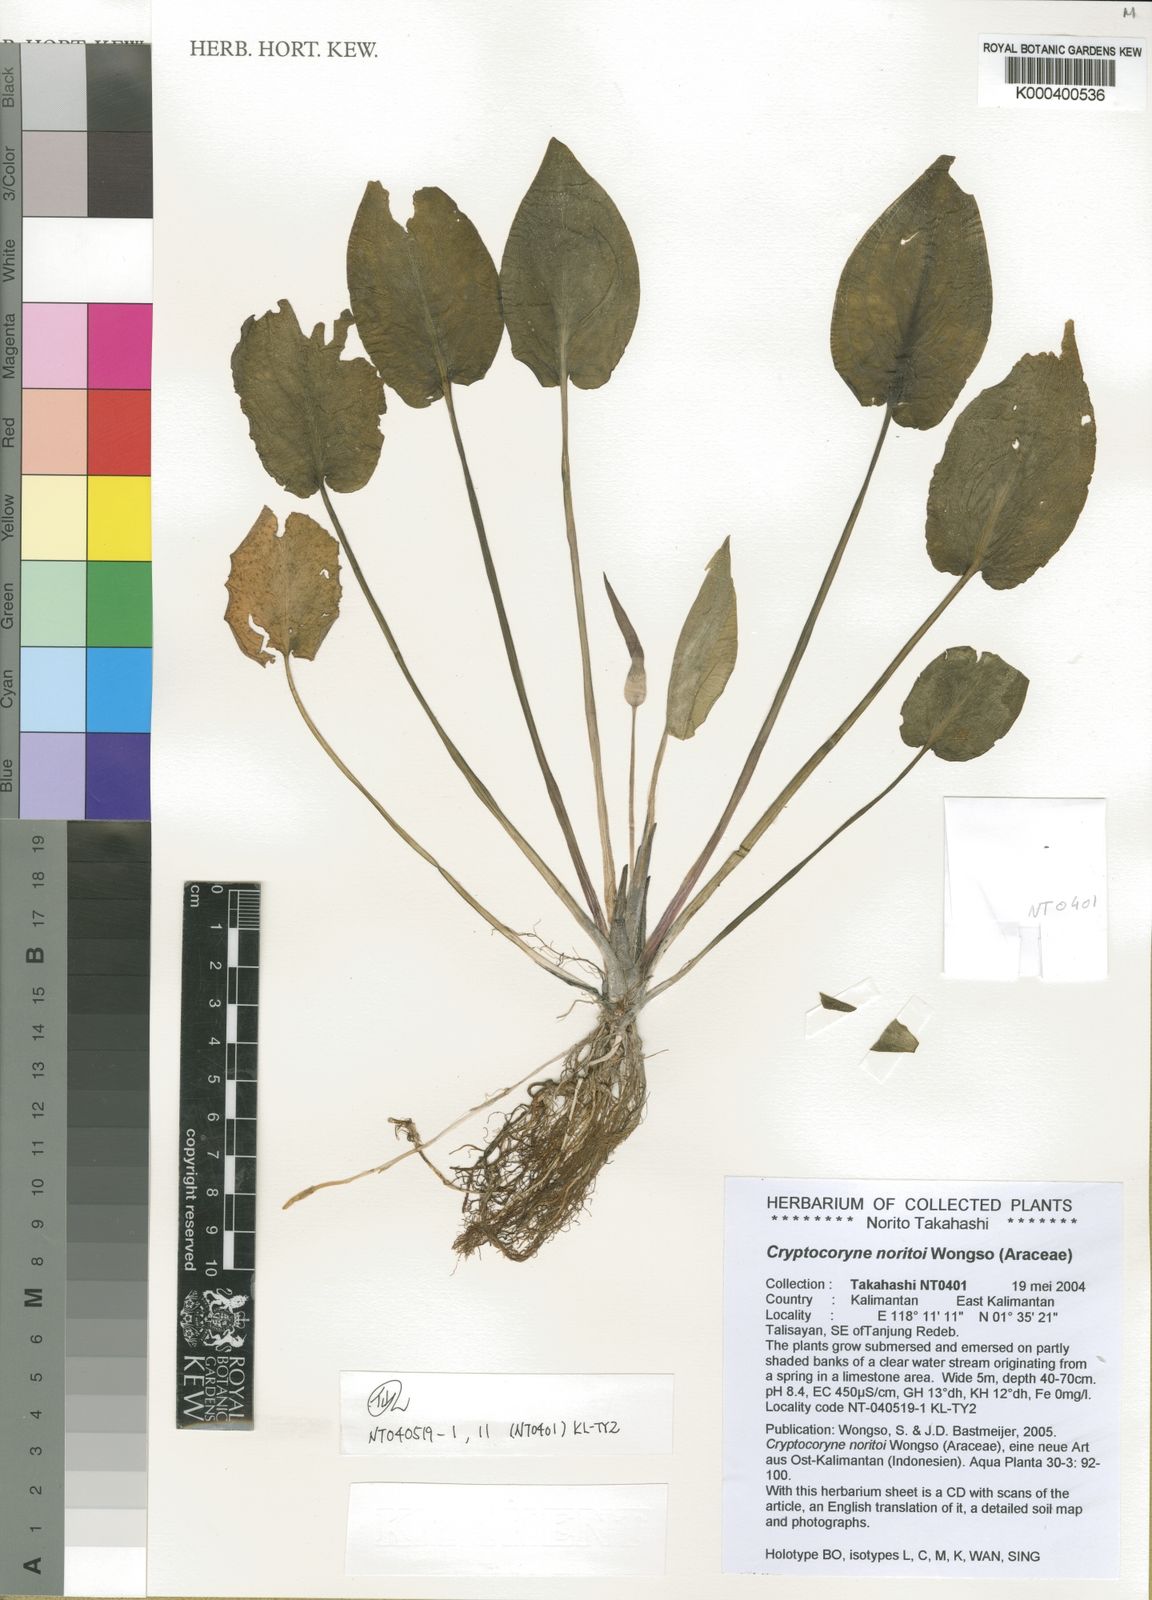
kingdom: Plantae
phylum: Tracheophyta
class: Liliopsida
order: Alismatales
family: Araceae
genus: Cryptocoryne
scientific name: Cryptocoryne noritoi
